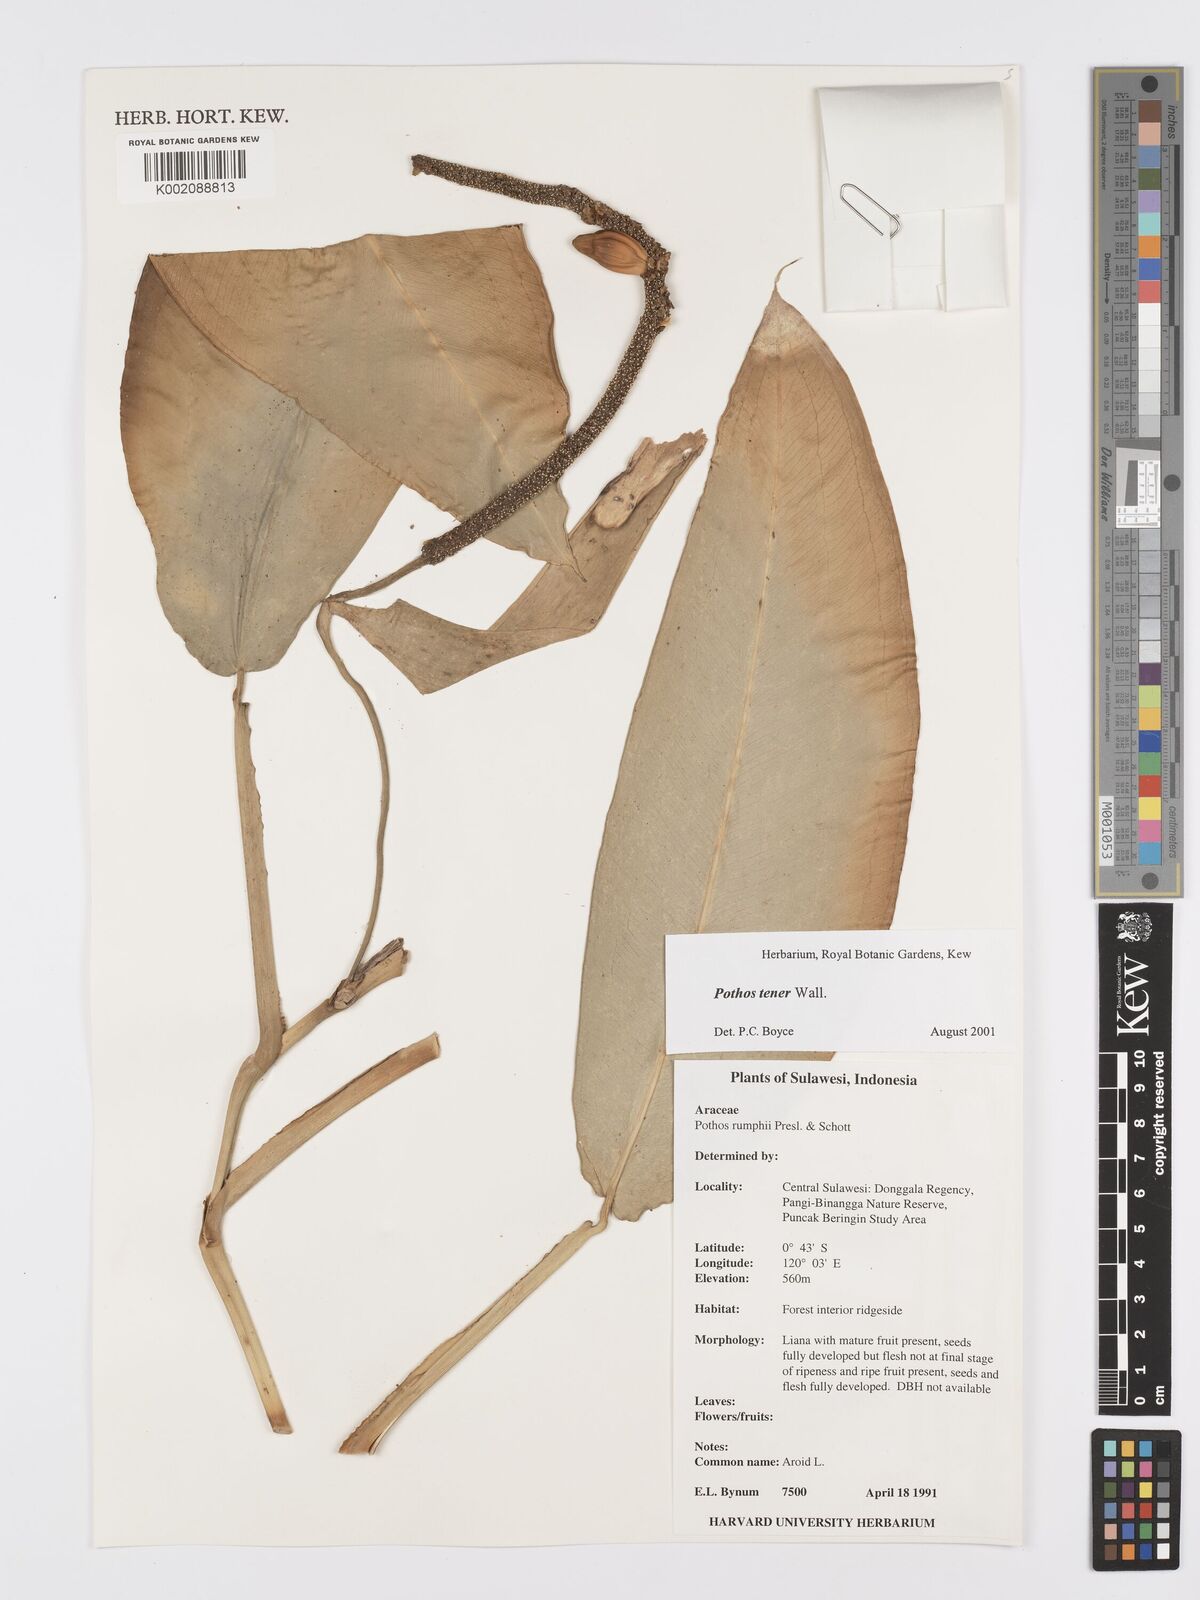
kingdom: Plantae
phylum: Tracheophyta
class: Liliopsida
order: Alismatales
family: Araceae
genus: Pothos
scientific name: Pothos tener
